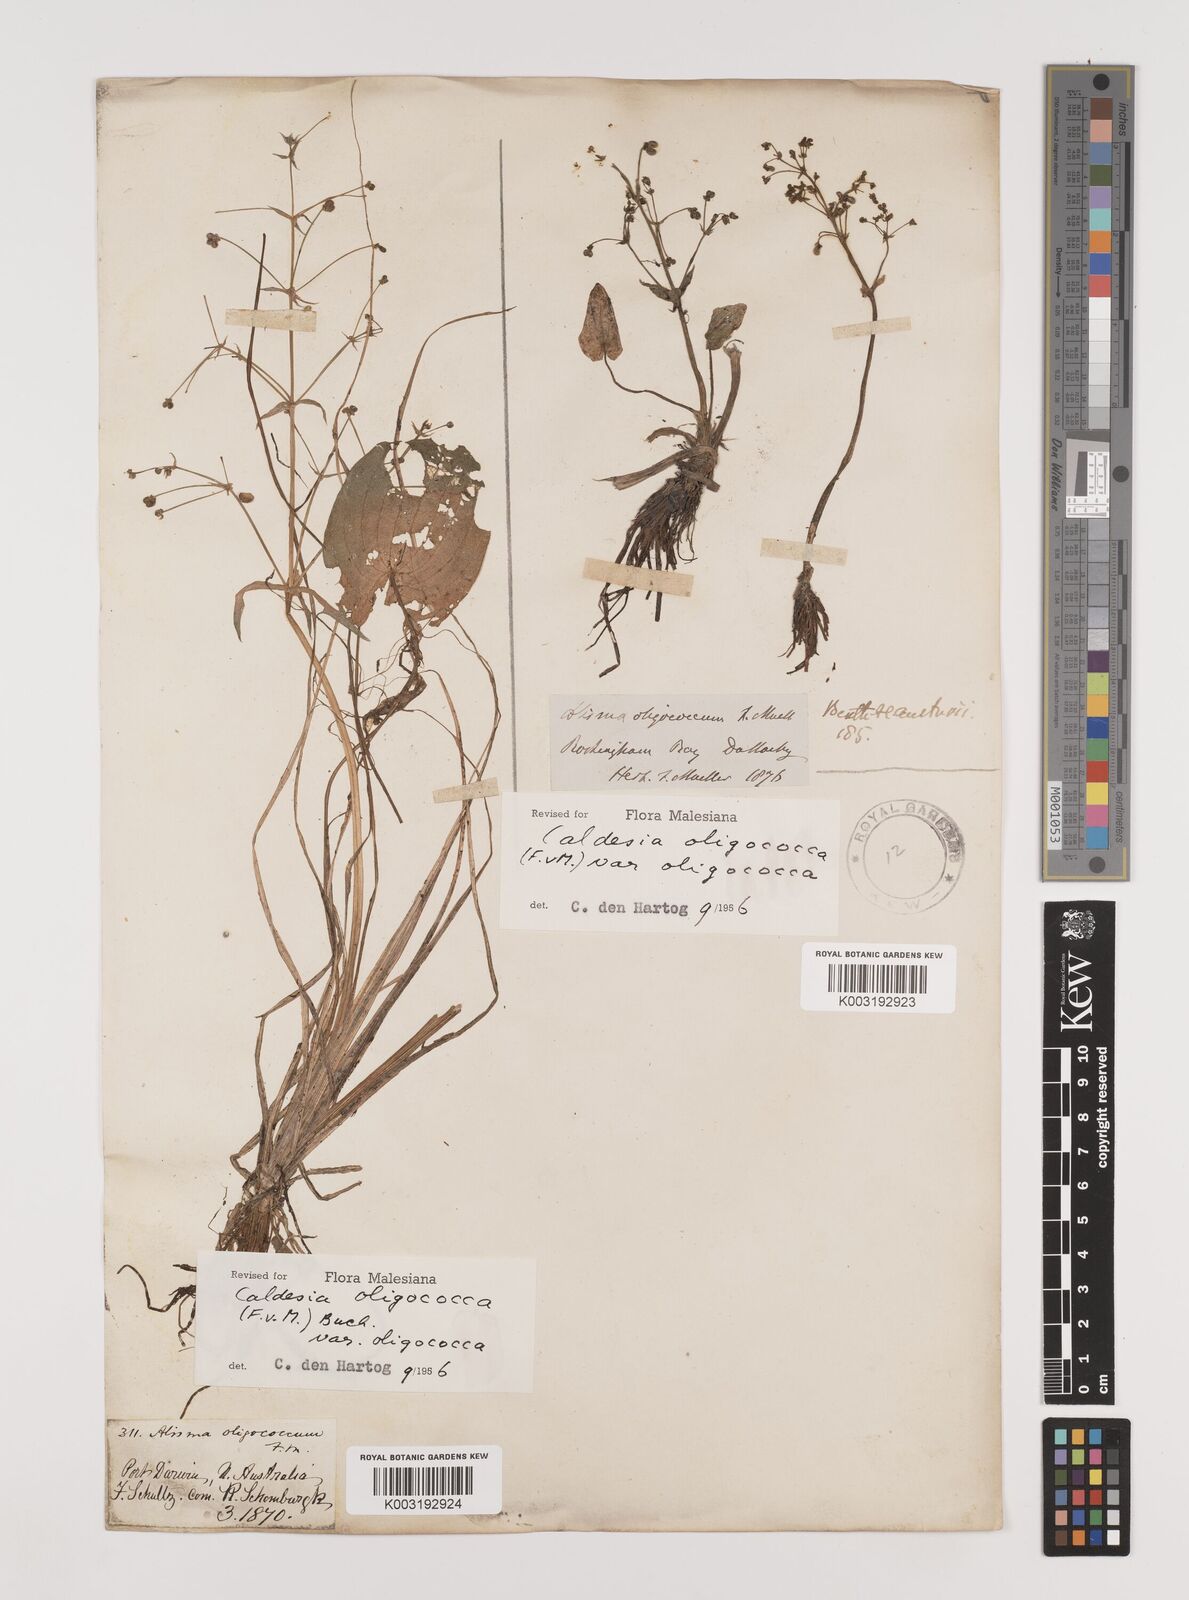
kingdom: Plantae
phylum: Tracheophyta
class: Liliopsida
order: Alismatales
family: Alismataceae
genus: Albidella
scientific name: Albidella oligococca
